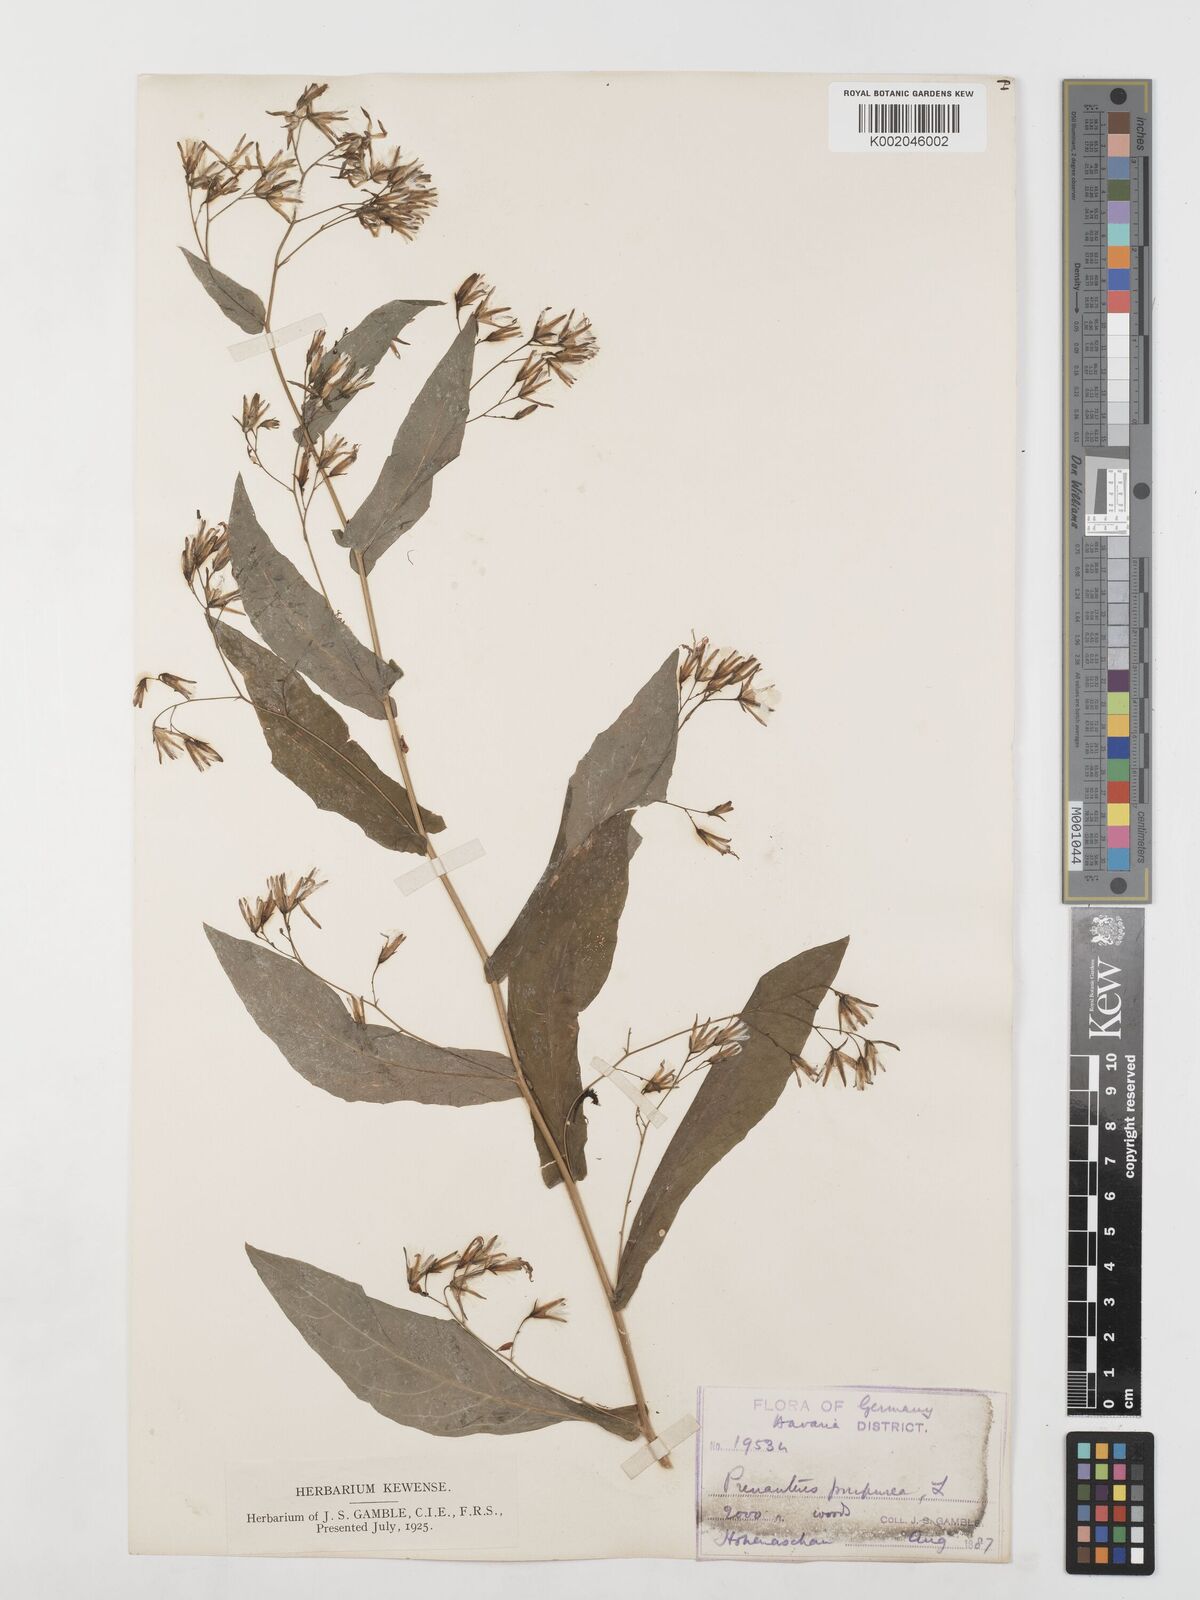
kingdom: Plantae
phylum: Tracheophyta
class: Magnoliopsida
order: Asterales
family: Asteraceae
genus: Prenanthes
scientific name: Prenanthes purpurea
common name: Purple lettuce
